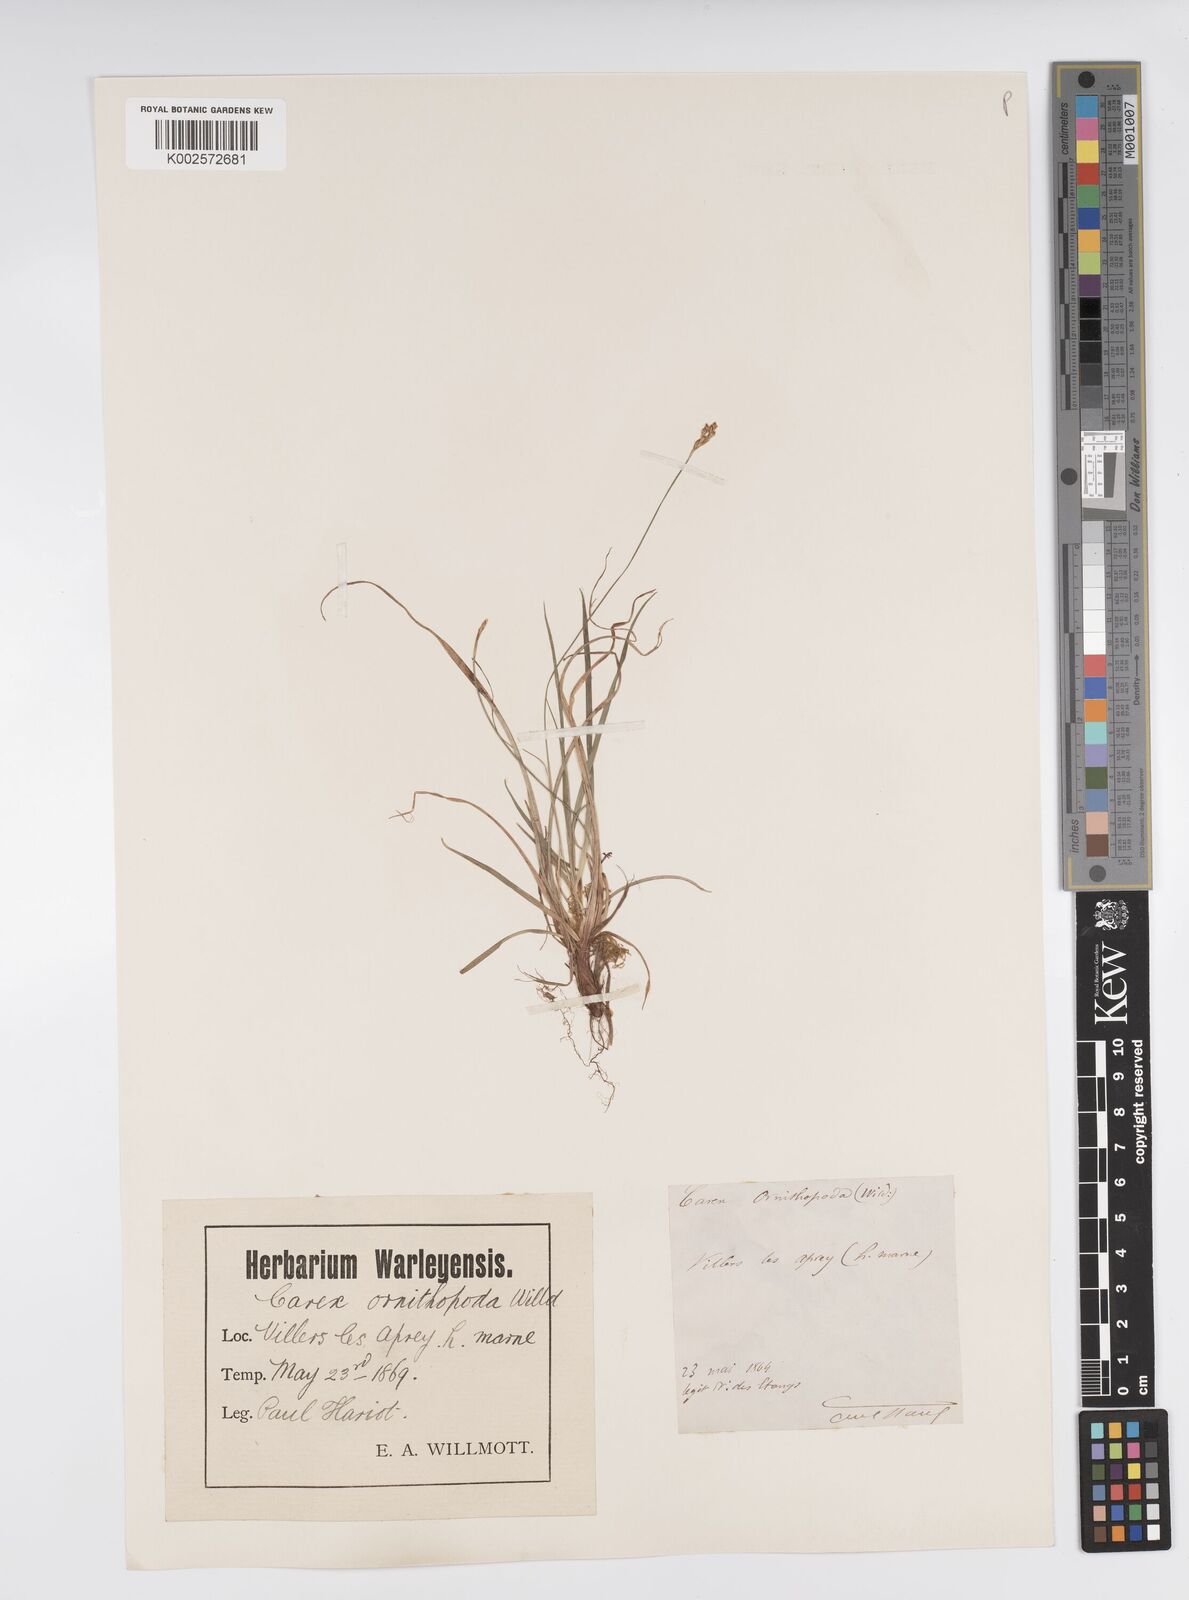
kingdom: Plantae
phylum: Tracheophyta
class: Liliopsida
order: Poales
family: Cyperaceae
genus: Carex
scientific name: Carex ornithopoda
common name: Bird's-foot sedge
